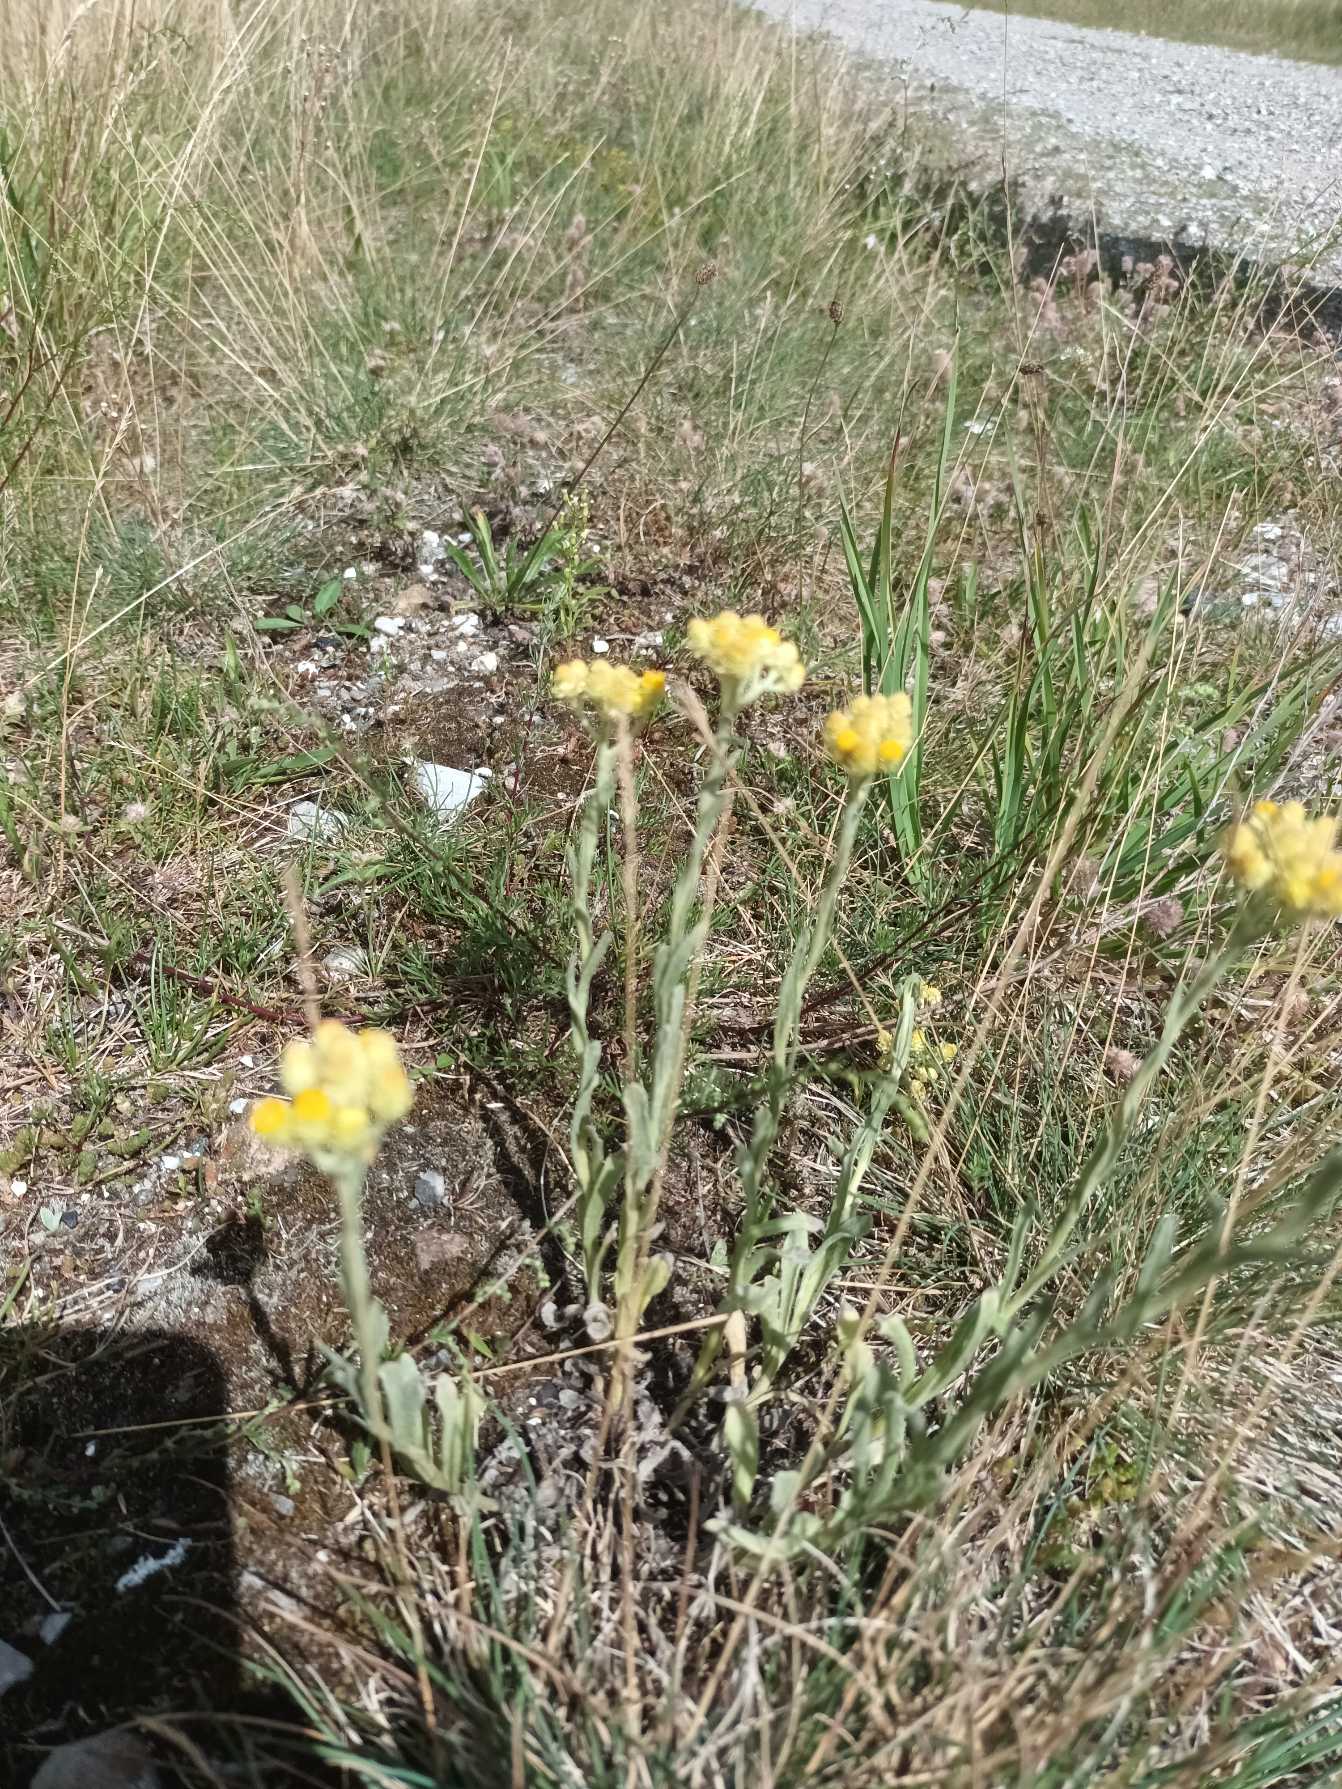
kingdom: Plantae
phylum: Tracheophyta
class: Magnoliopsida
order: Asterales
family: Asteraceae
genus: Helichrysum
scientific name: Helichrysum arenarium
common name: Gul evighedsblomst
